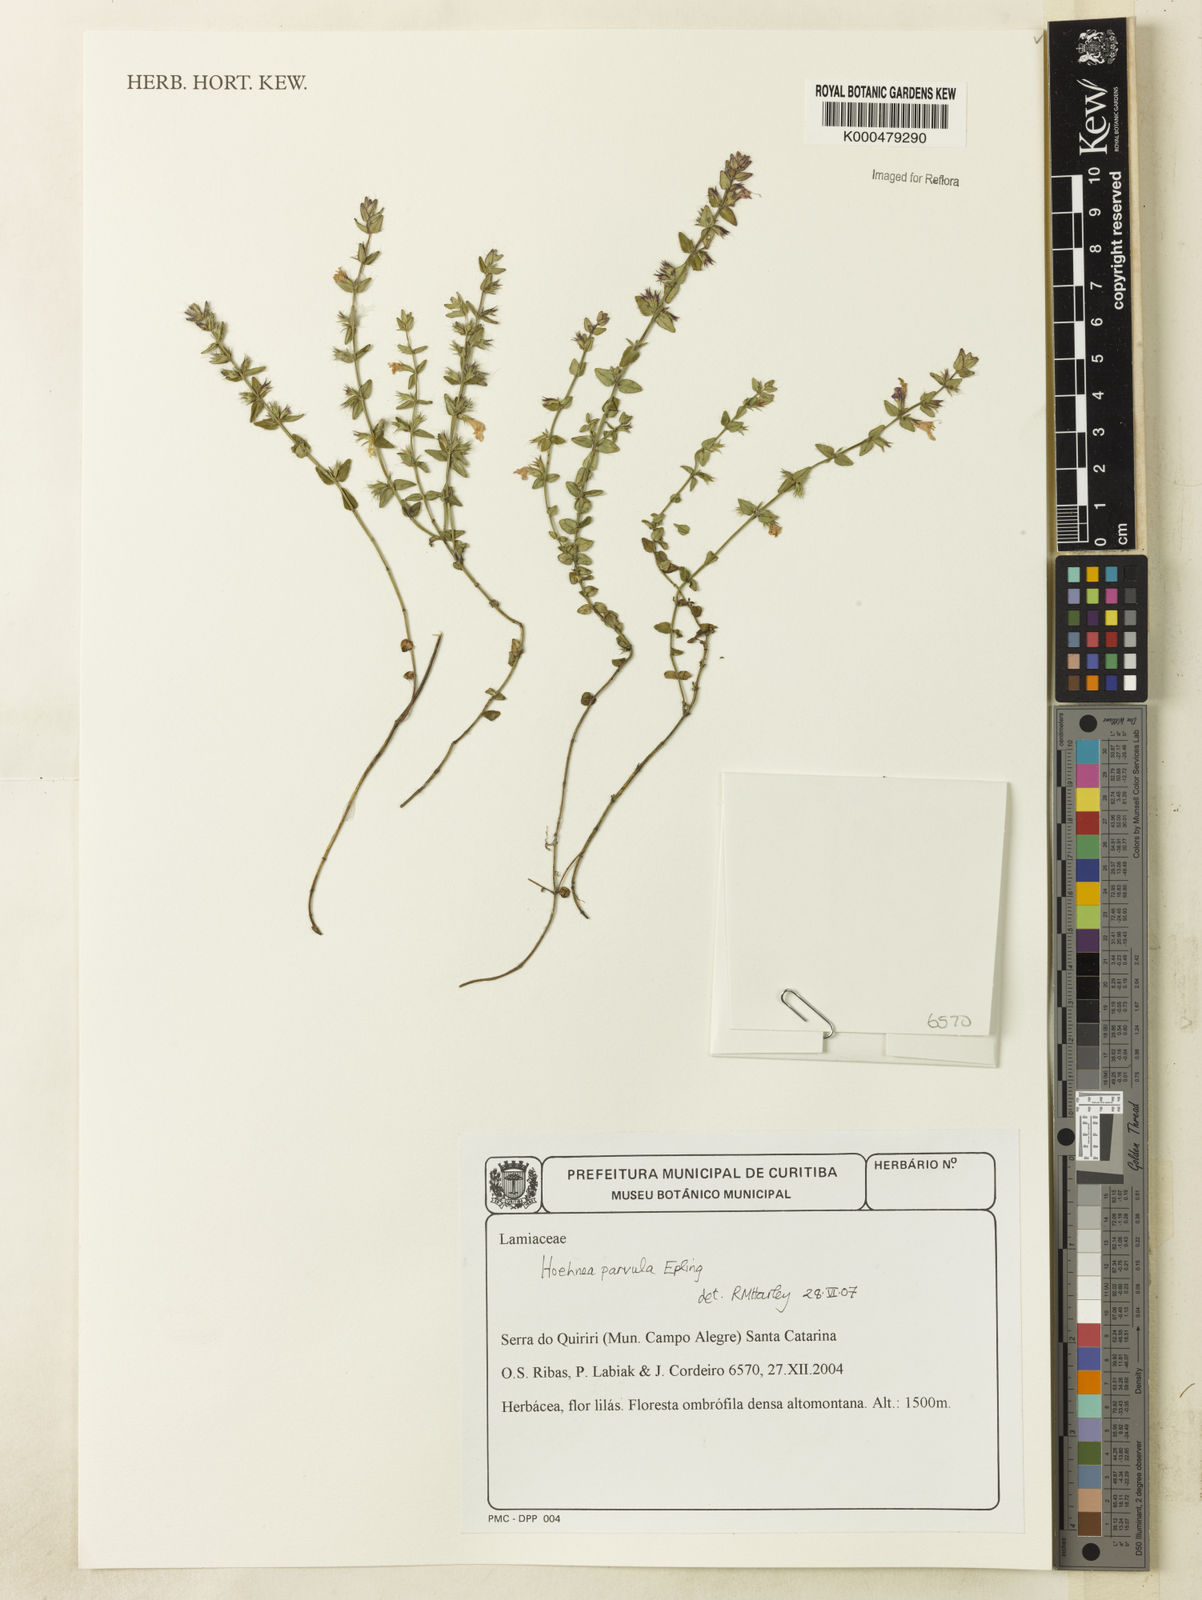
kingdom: Plantae
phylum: Tracheophyta
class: Magnoliopsida
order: Lamiales
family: Lamiaceae
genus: Hoehnea
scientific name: Hoehnea parvula
